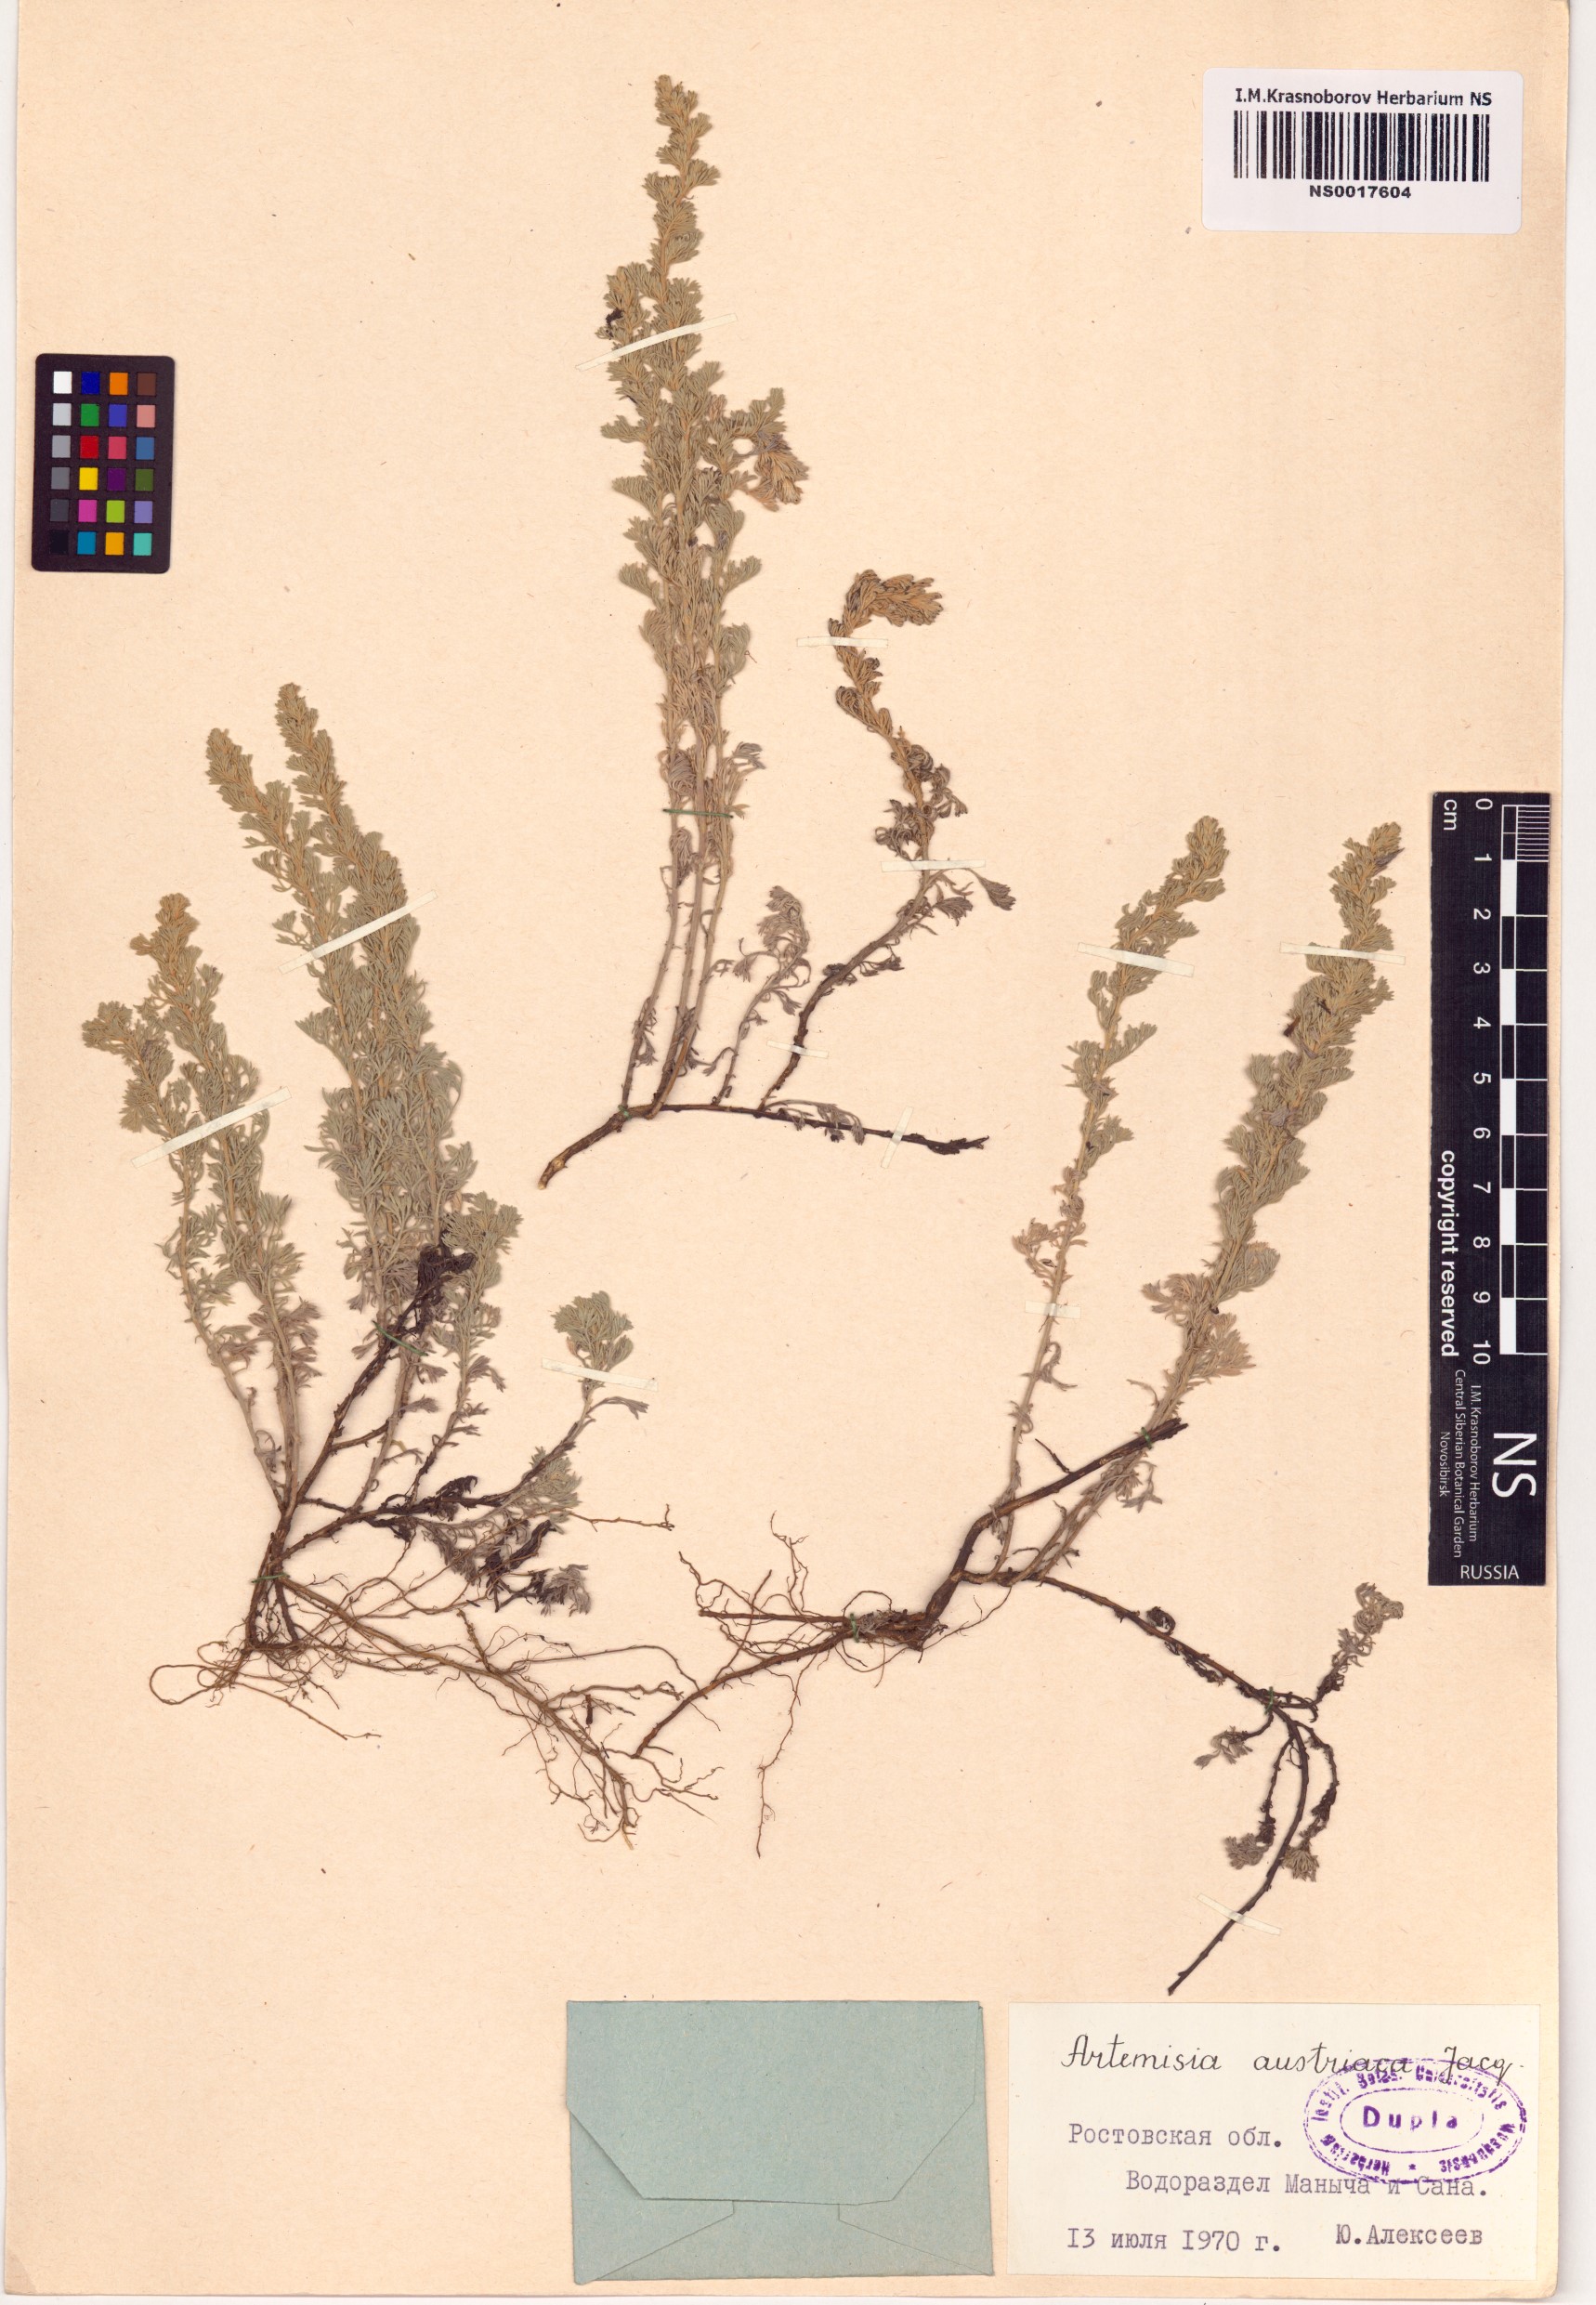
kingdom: Plantae
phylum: Tracheophyta
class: Magnoliopsida
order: Asterales
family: Asteraceae
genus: Artemisia
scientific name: Artemisia austriaca
